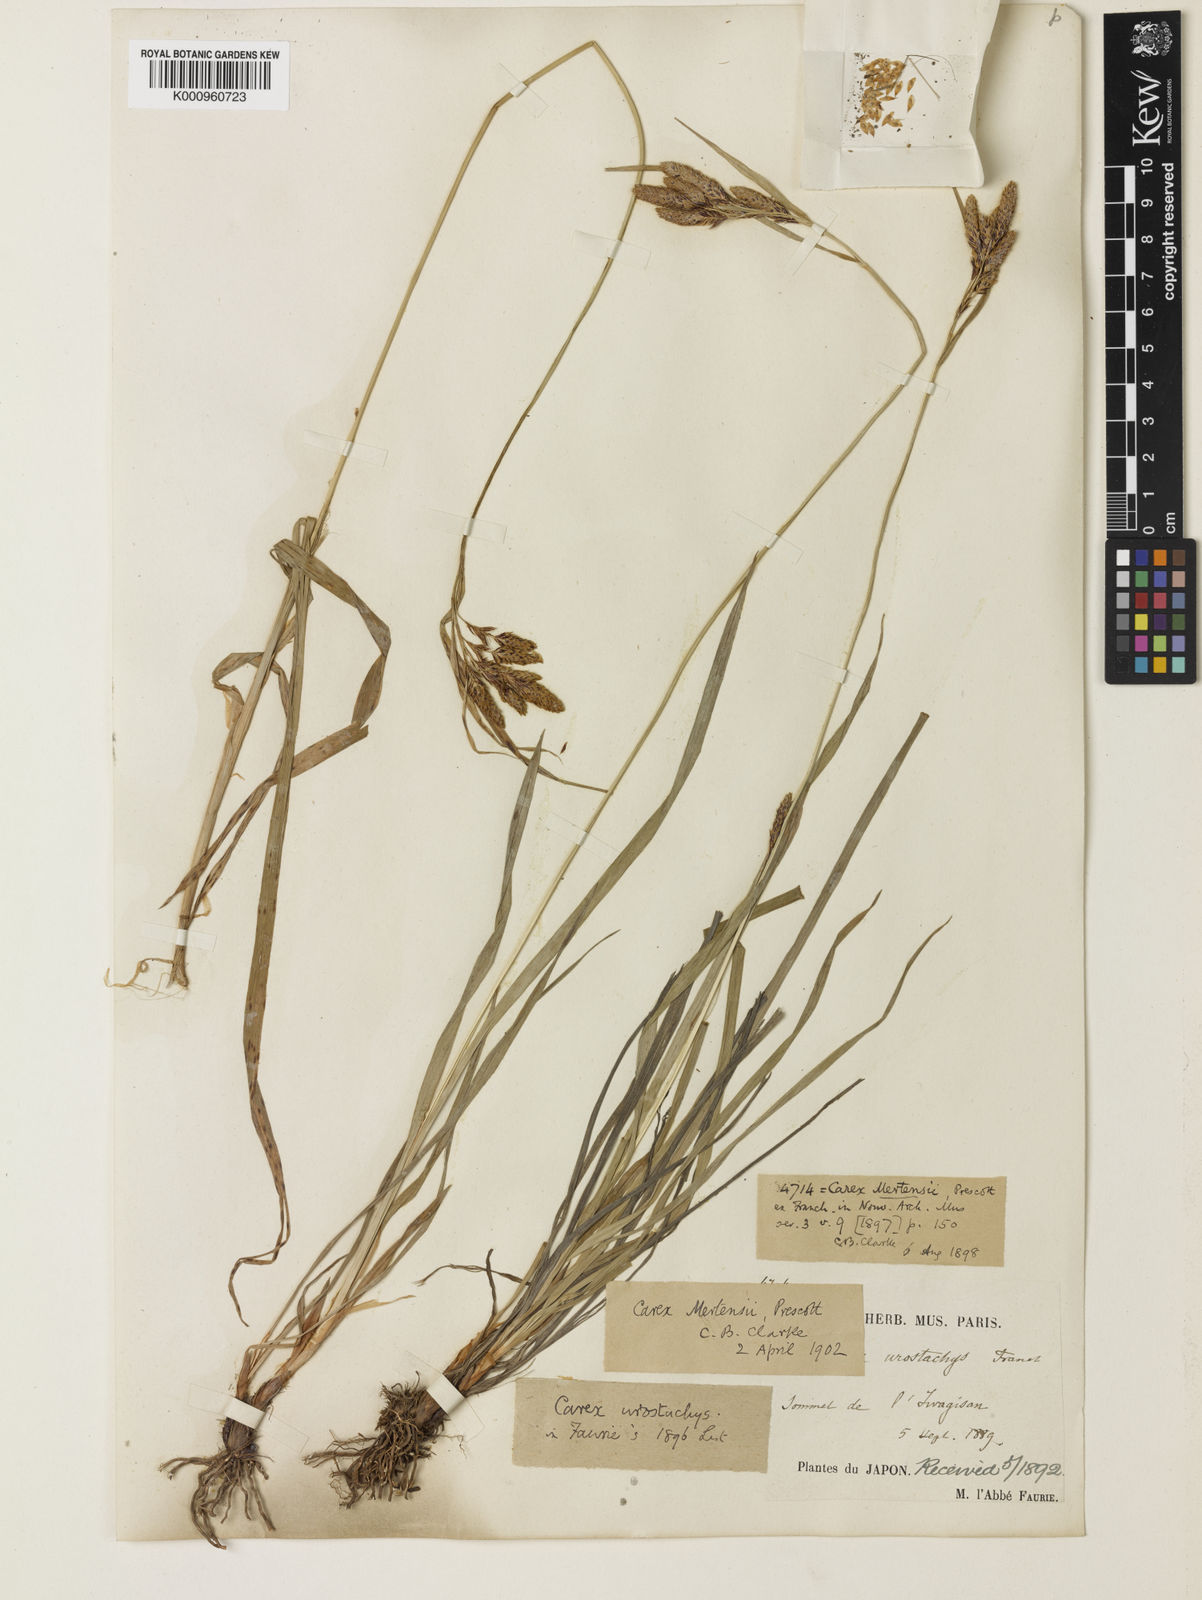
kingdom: Plantae
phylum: Tracheophyta
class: Liliopsida
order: Poales
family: Cyperaceae
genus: Carex
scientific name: Carex mertensii
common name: Mertens' sedge
